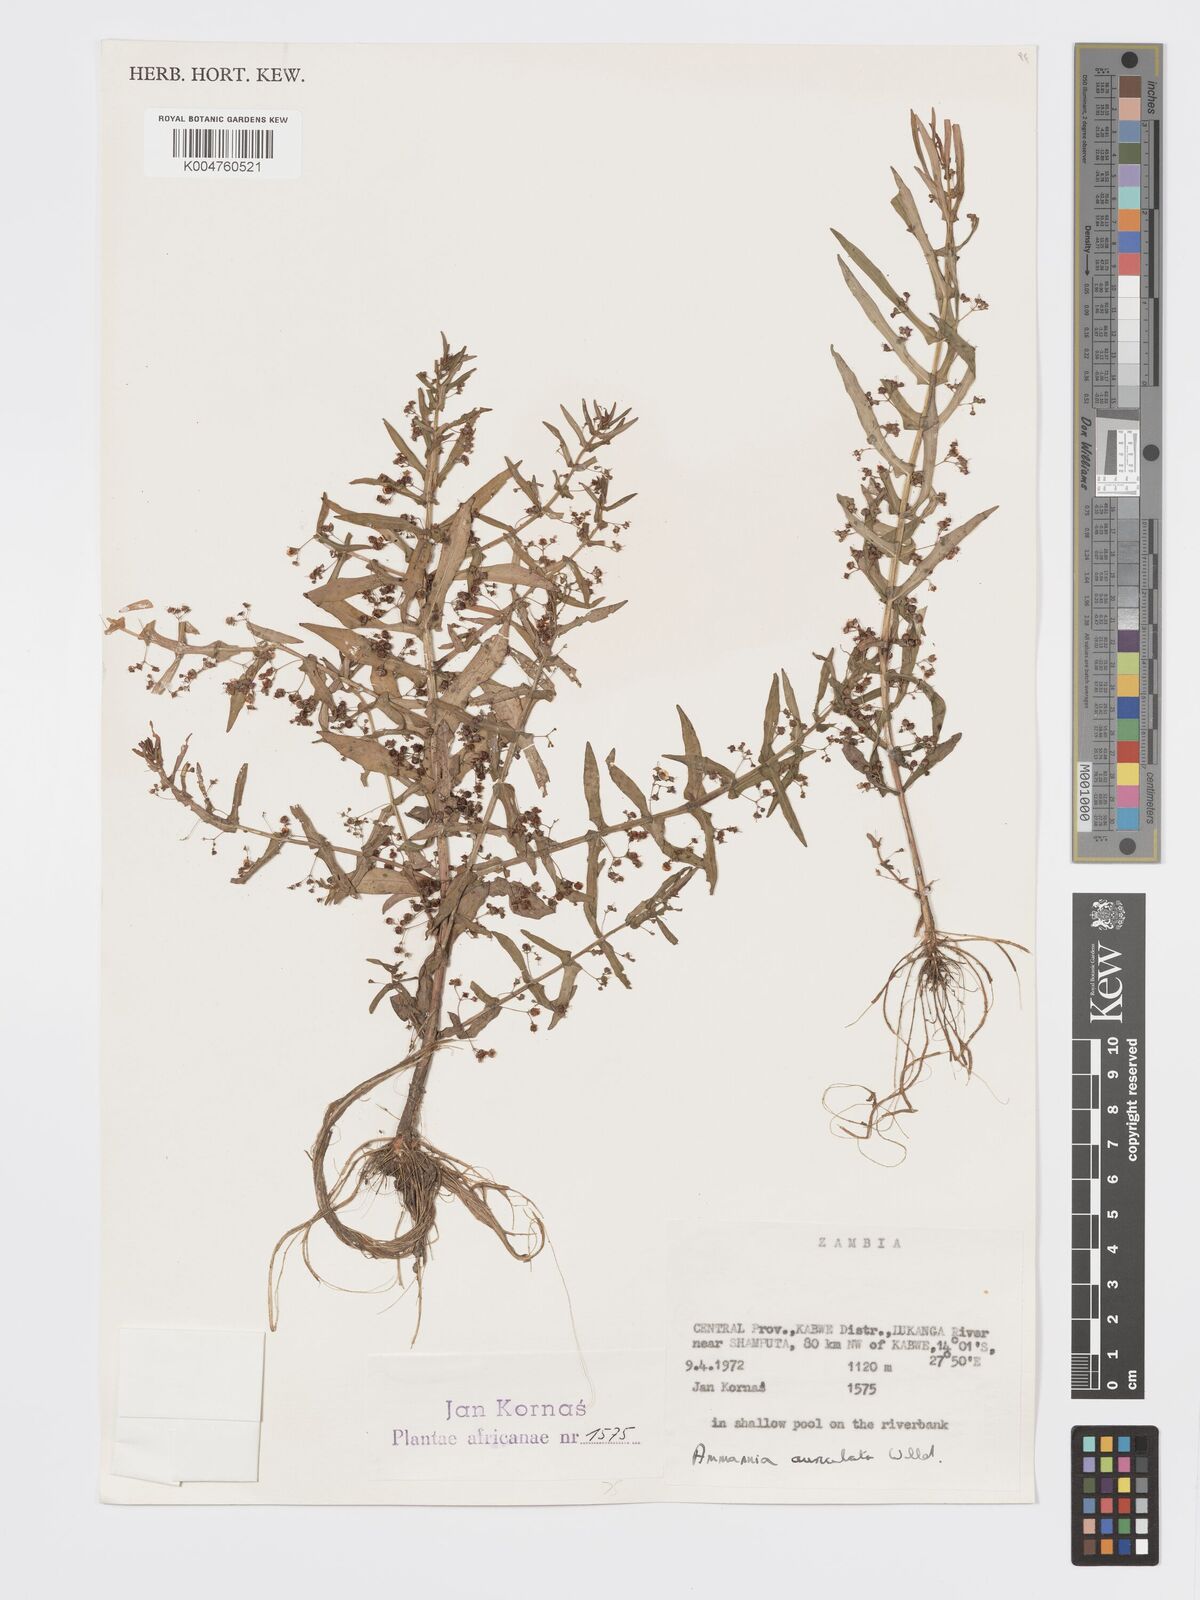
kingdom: Plantae
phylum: Tracheophyta
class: Magnoliopsida
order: Myrtales
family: Lythraceae
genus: Ammannia
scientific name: Ammannia auriculata
